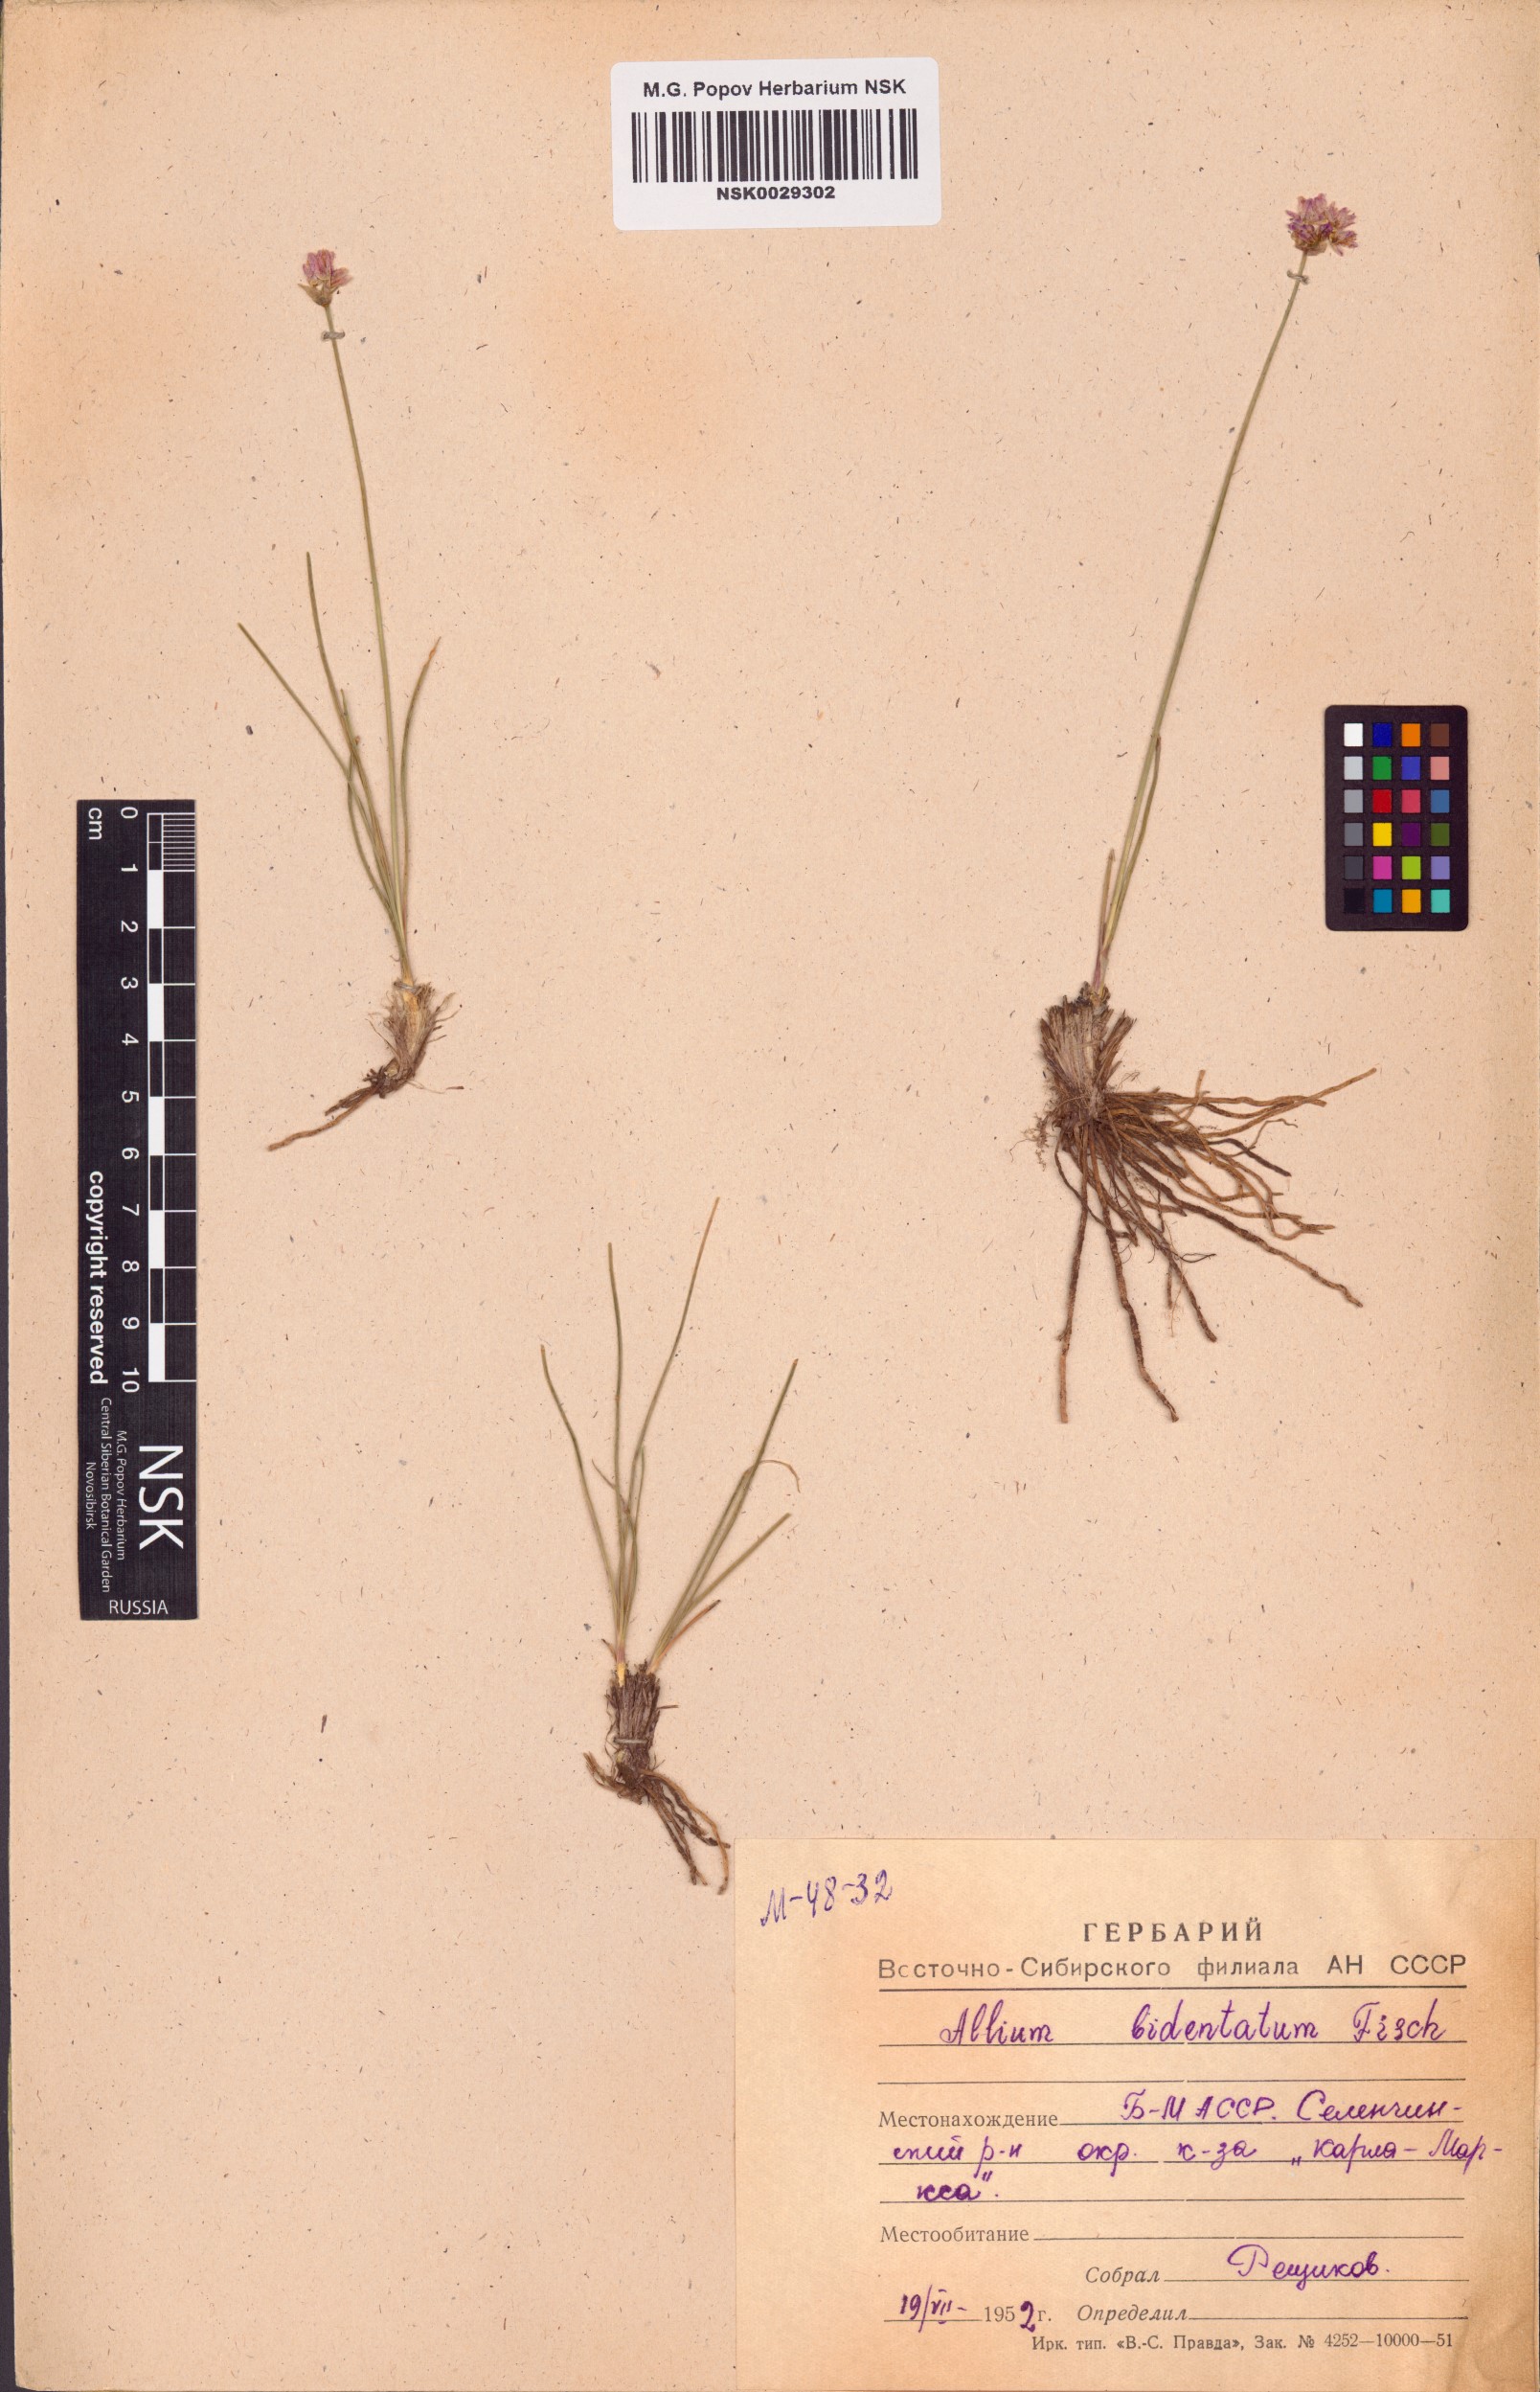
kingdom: Plantae
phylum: Tracheophyta
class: Liliopsida
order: Asparagales
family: Amaryllidaceae
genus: Allium
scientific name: Allium bidentatum
